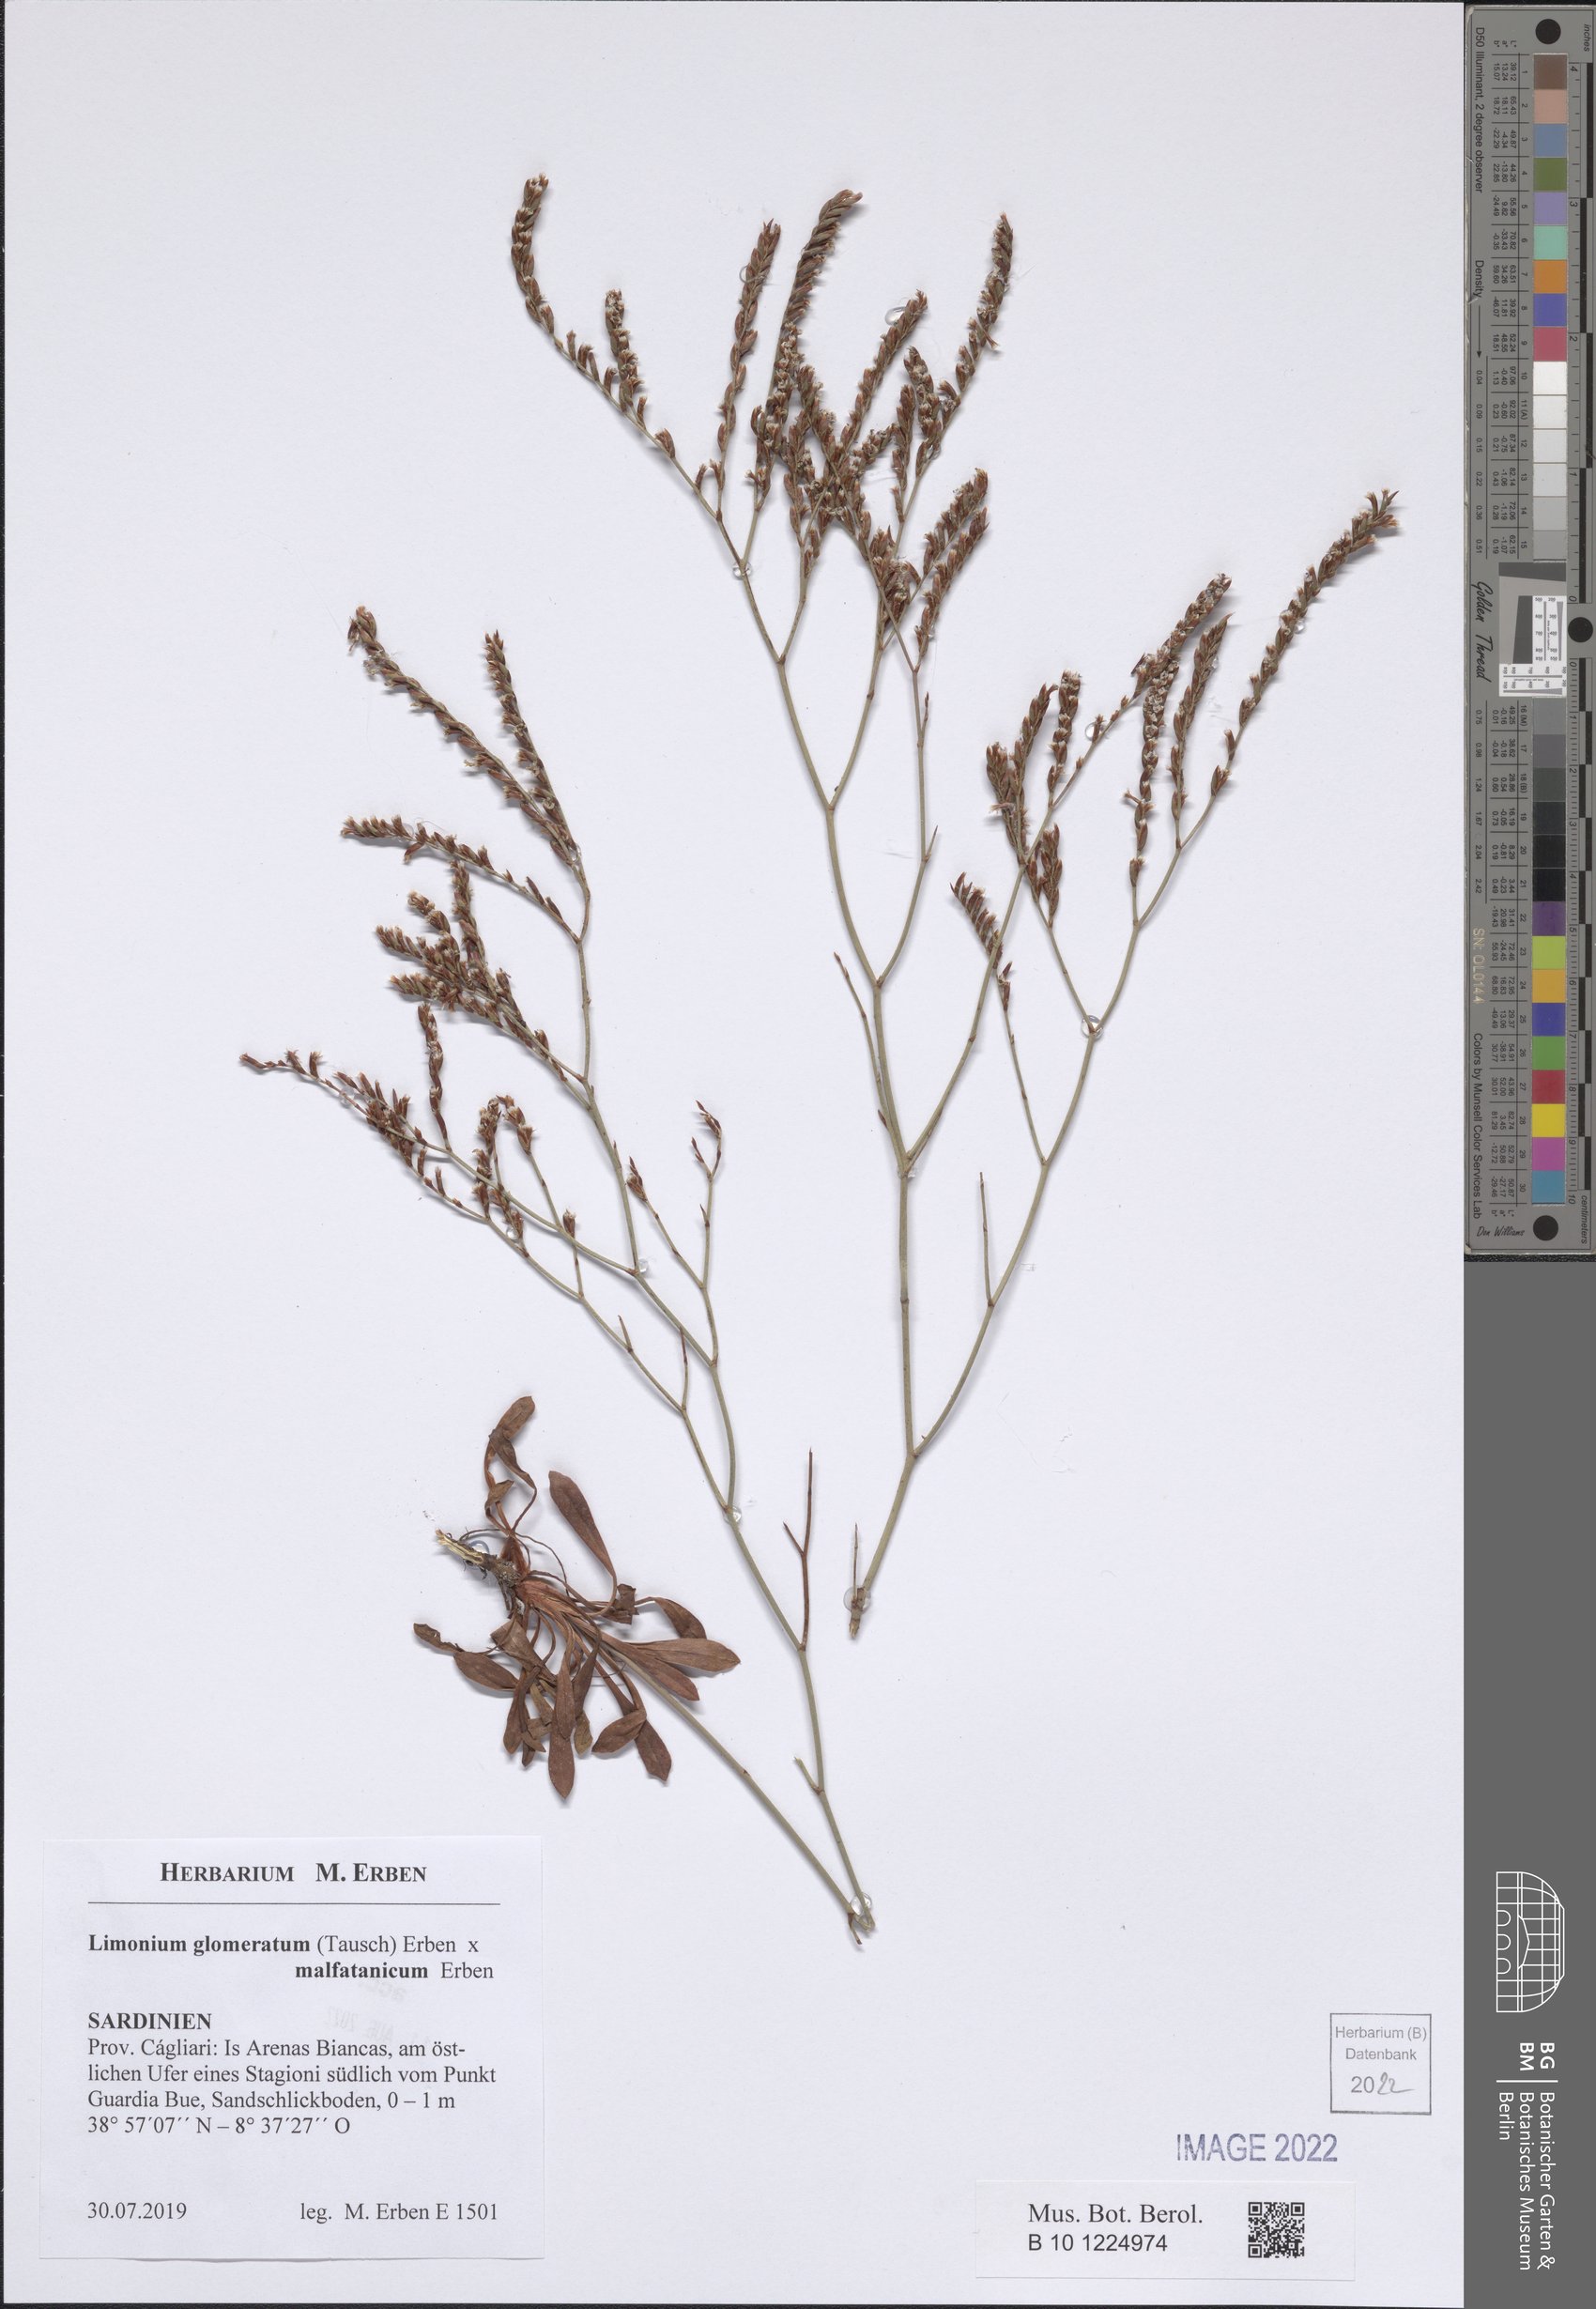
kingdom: Plantae
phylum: Tracheophyta
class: Magnoliopsida
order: Caryophyllales
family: Plumbaginaceae
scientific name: Plumbaginaceae
